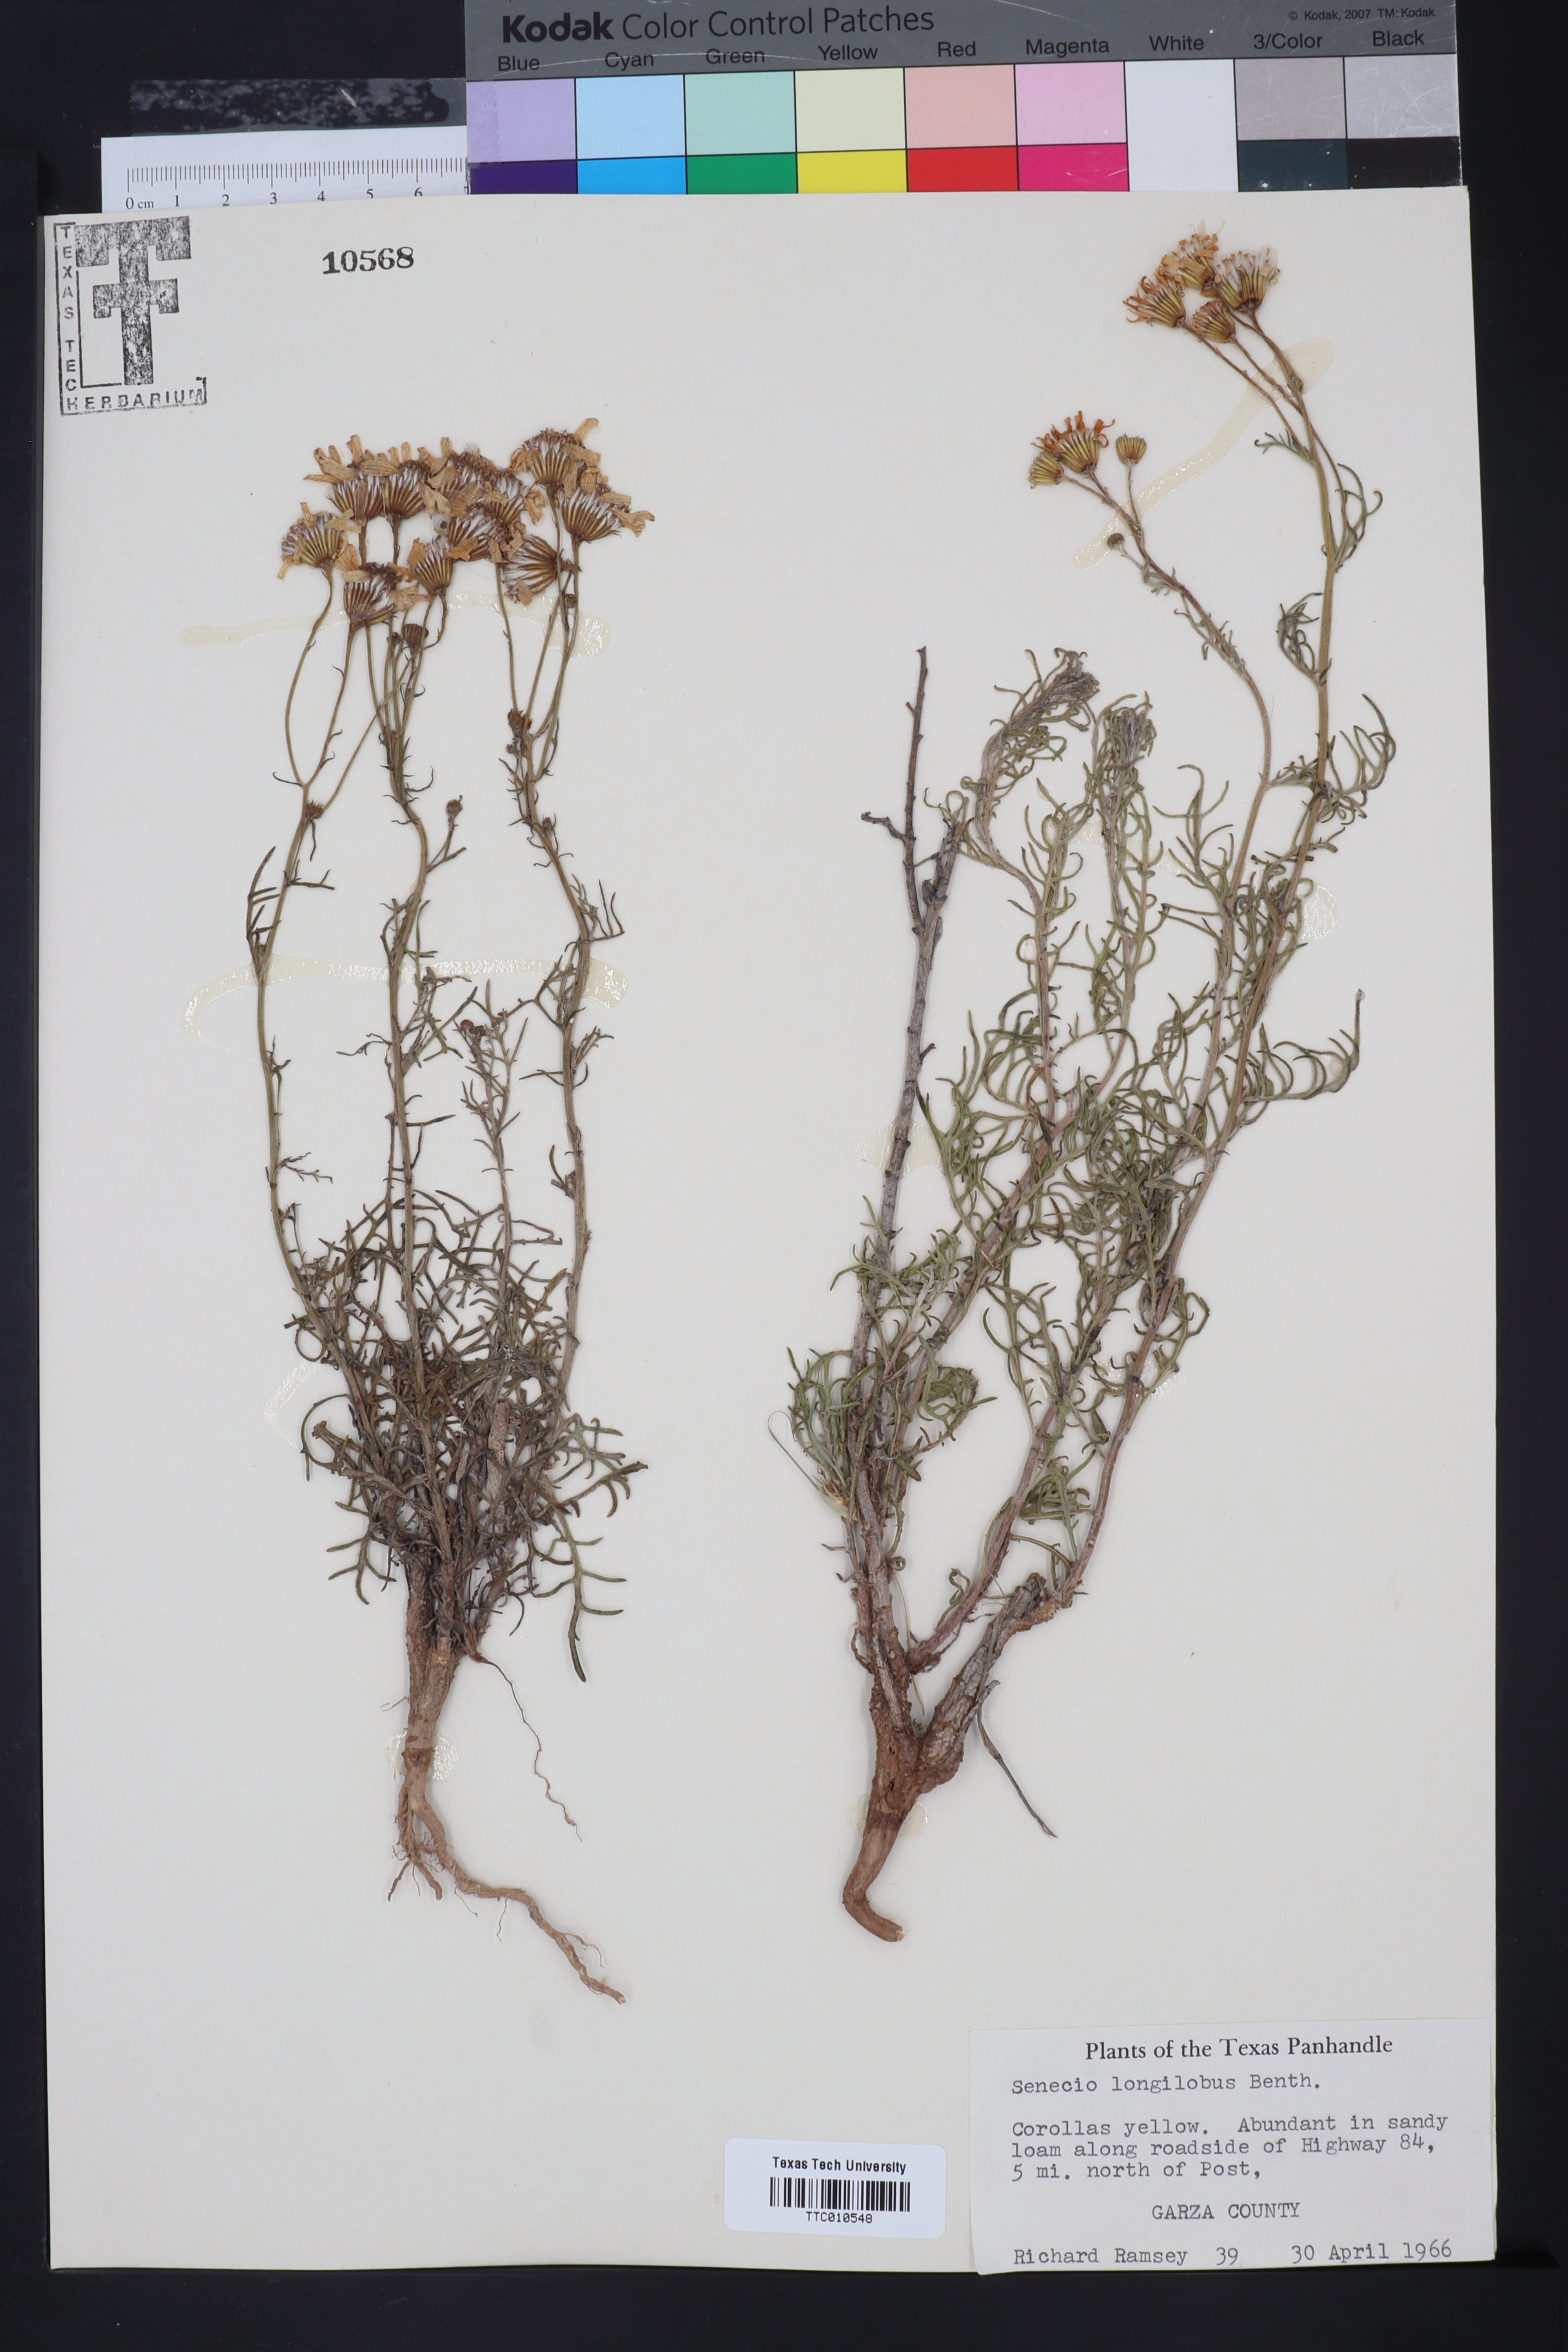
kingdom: Plantae
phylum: Tracheophyta
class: Magnoliopsida
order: Asterales
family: Asteraceae
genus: Senecio
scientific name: Senecio flaccidus
